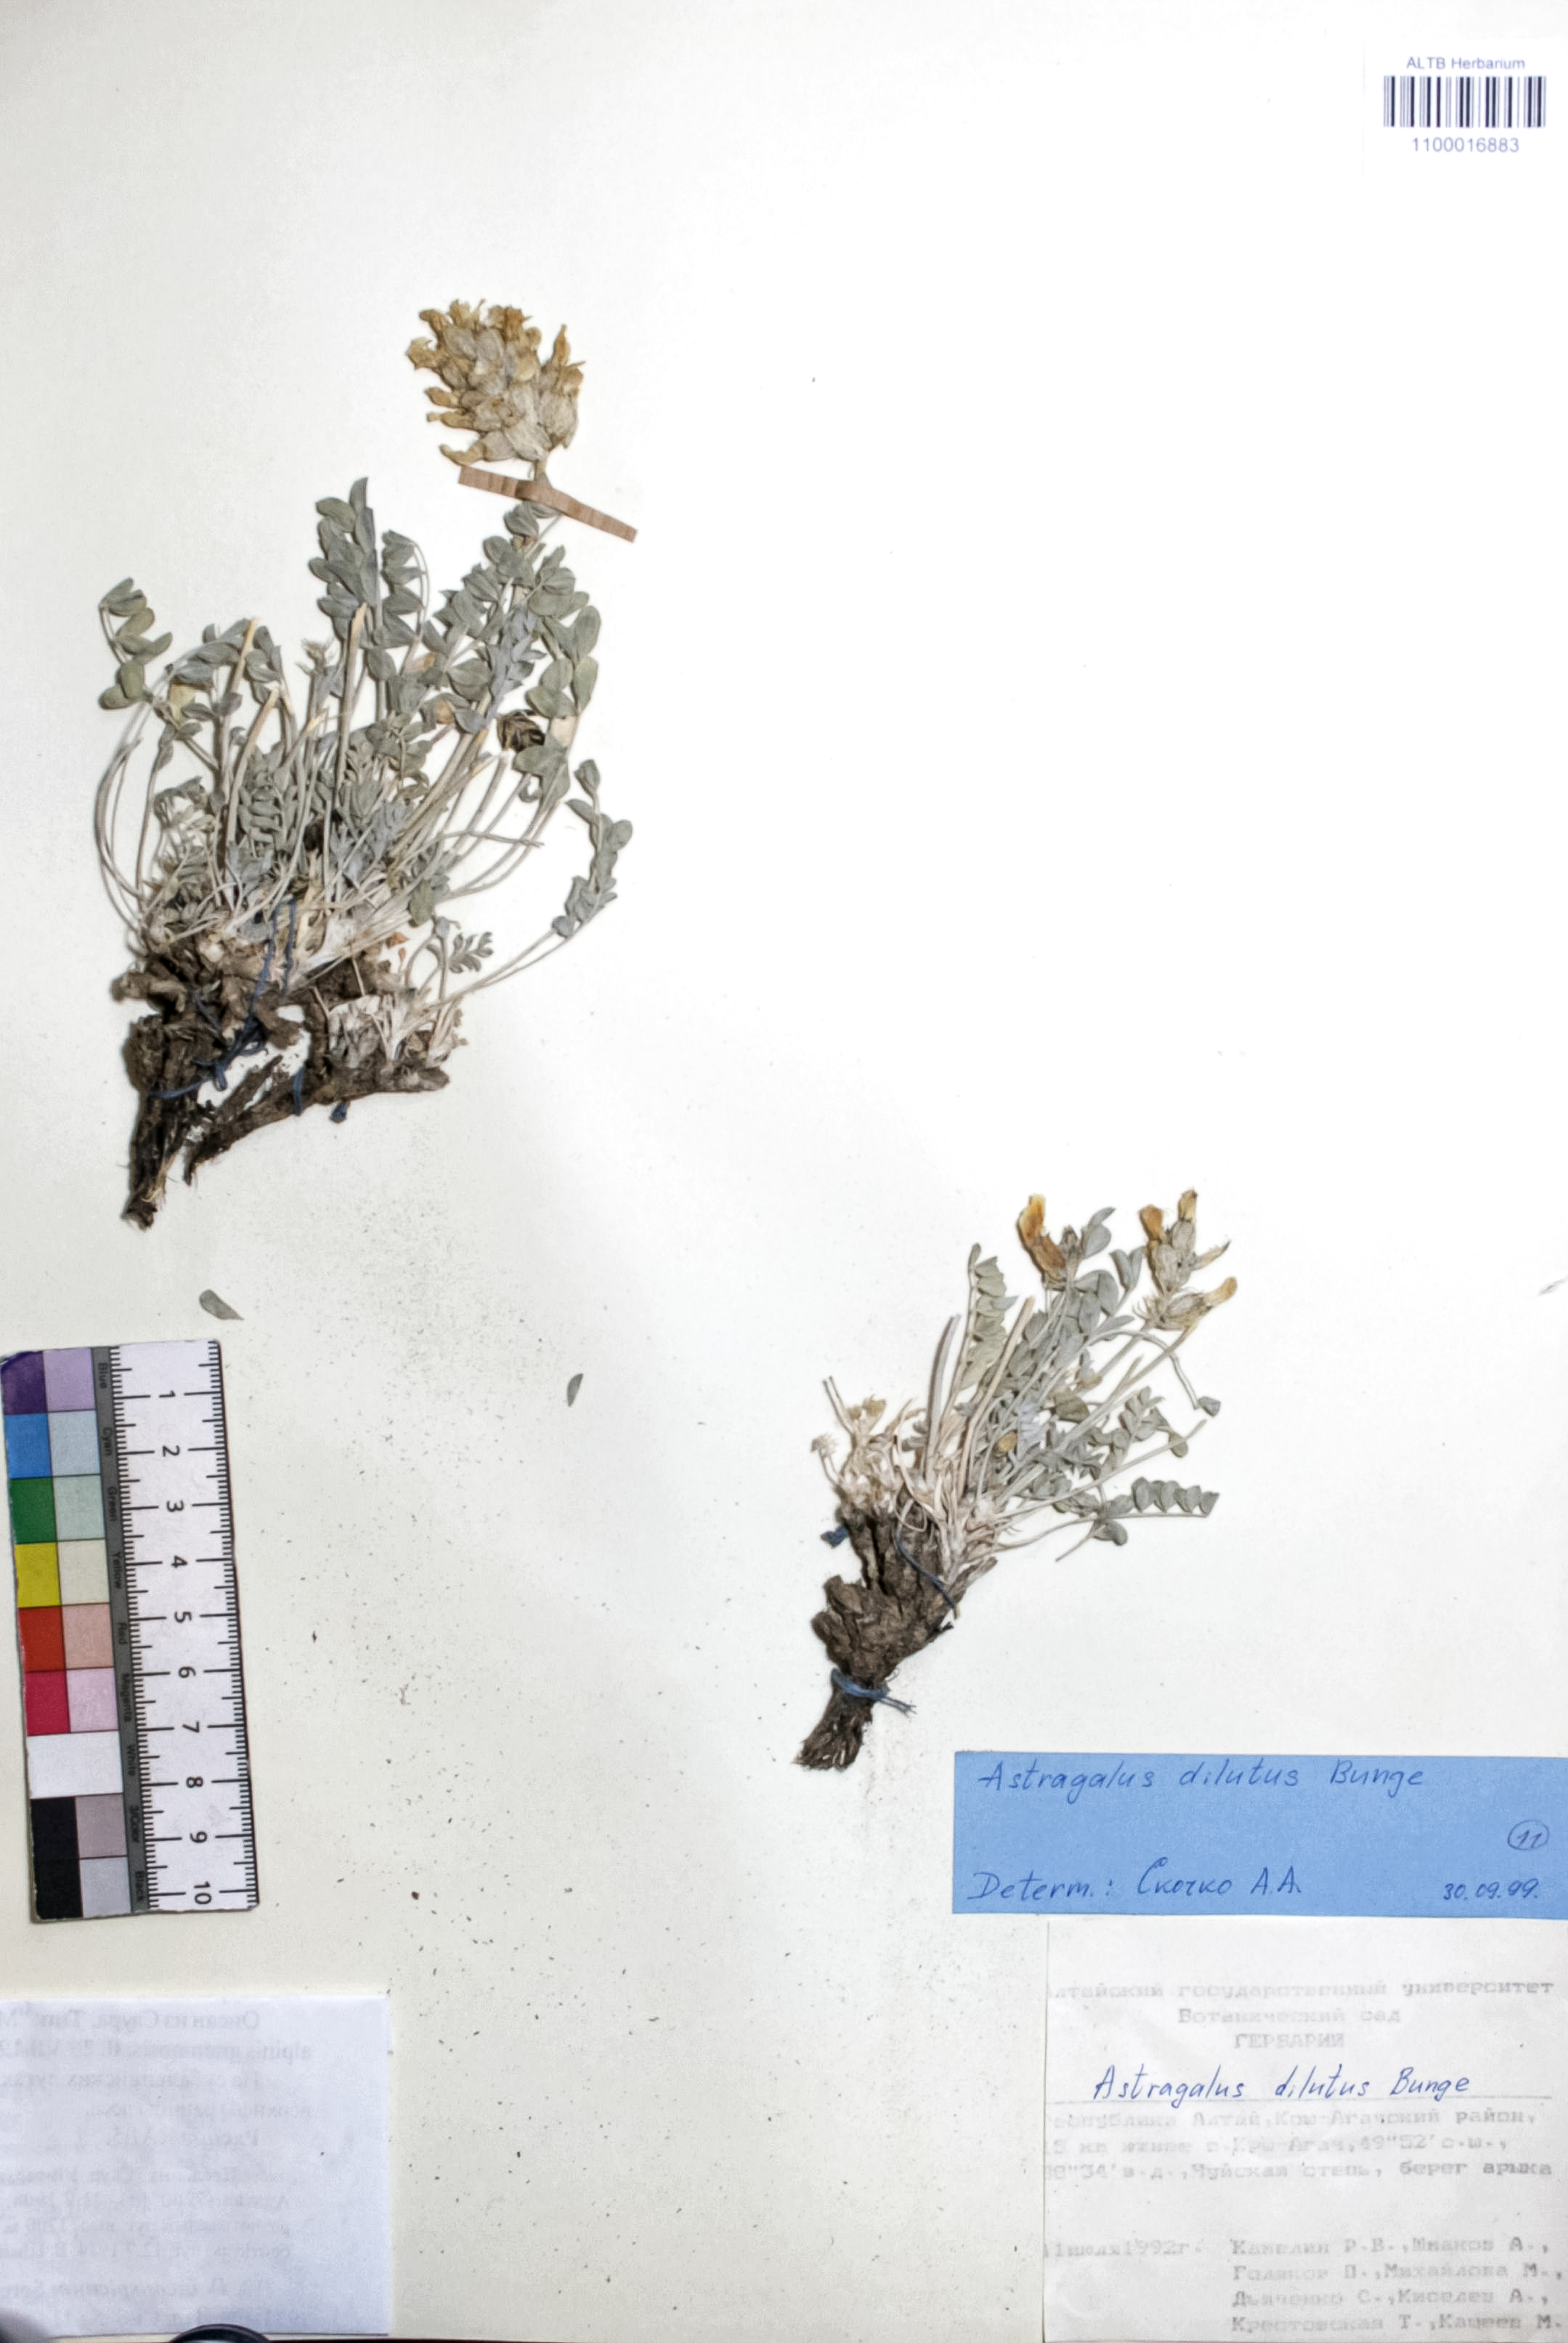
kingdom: Plantae
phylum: Tracheophyta
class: Magnoliopsida
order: Fabales
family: Fabaceae
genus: Astragalus
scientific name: Astragalus dilutus
